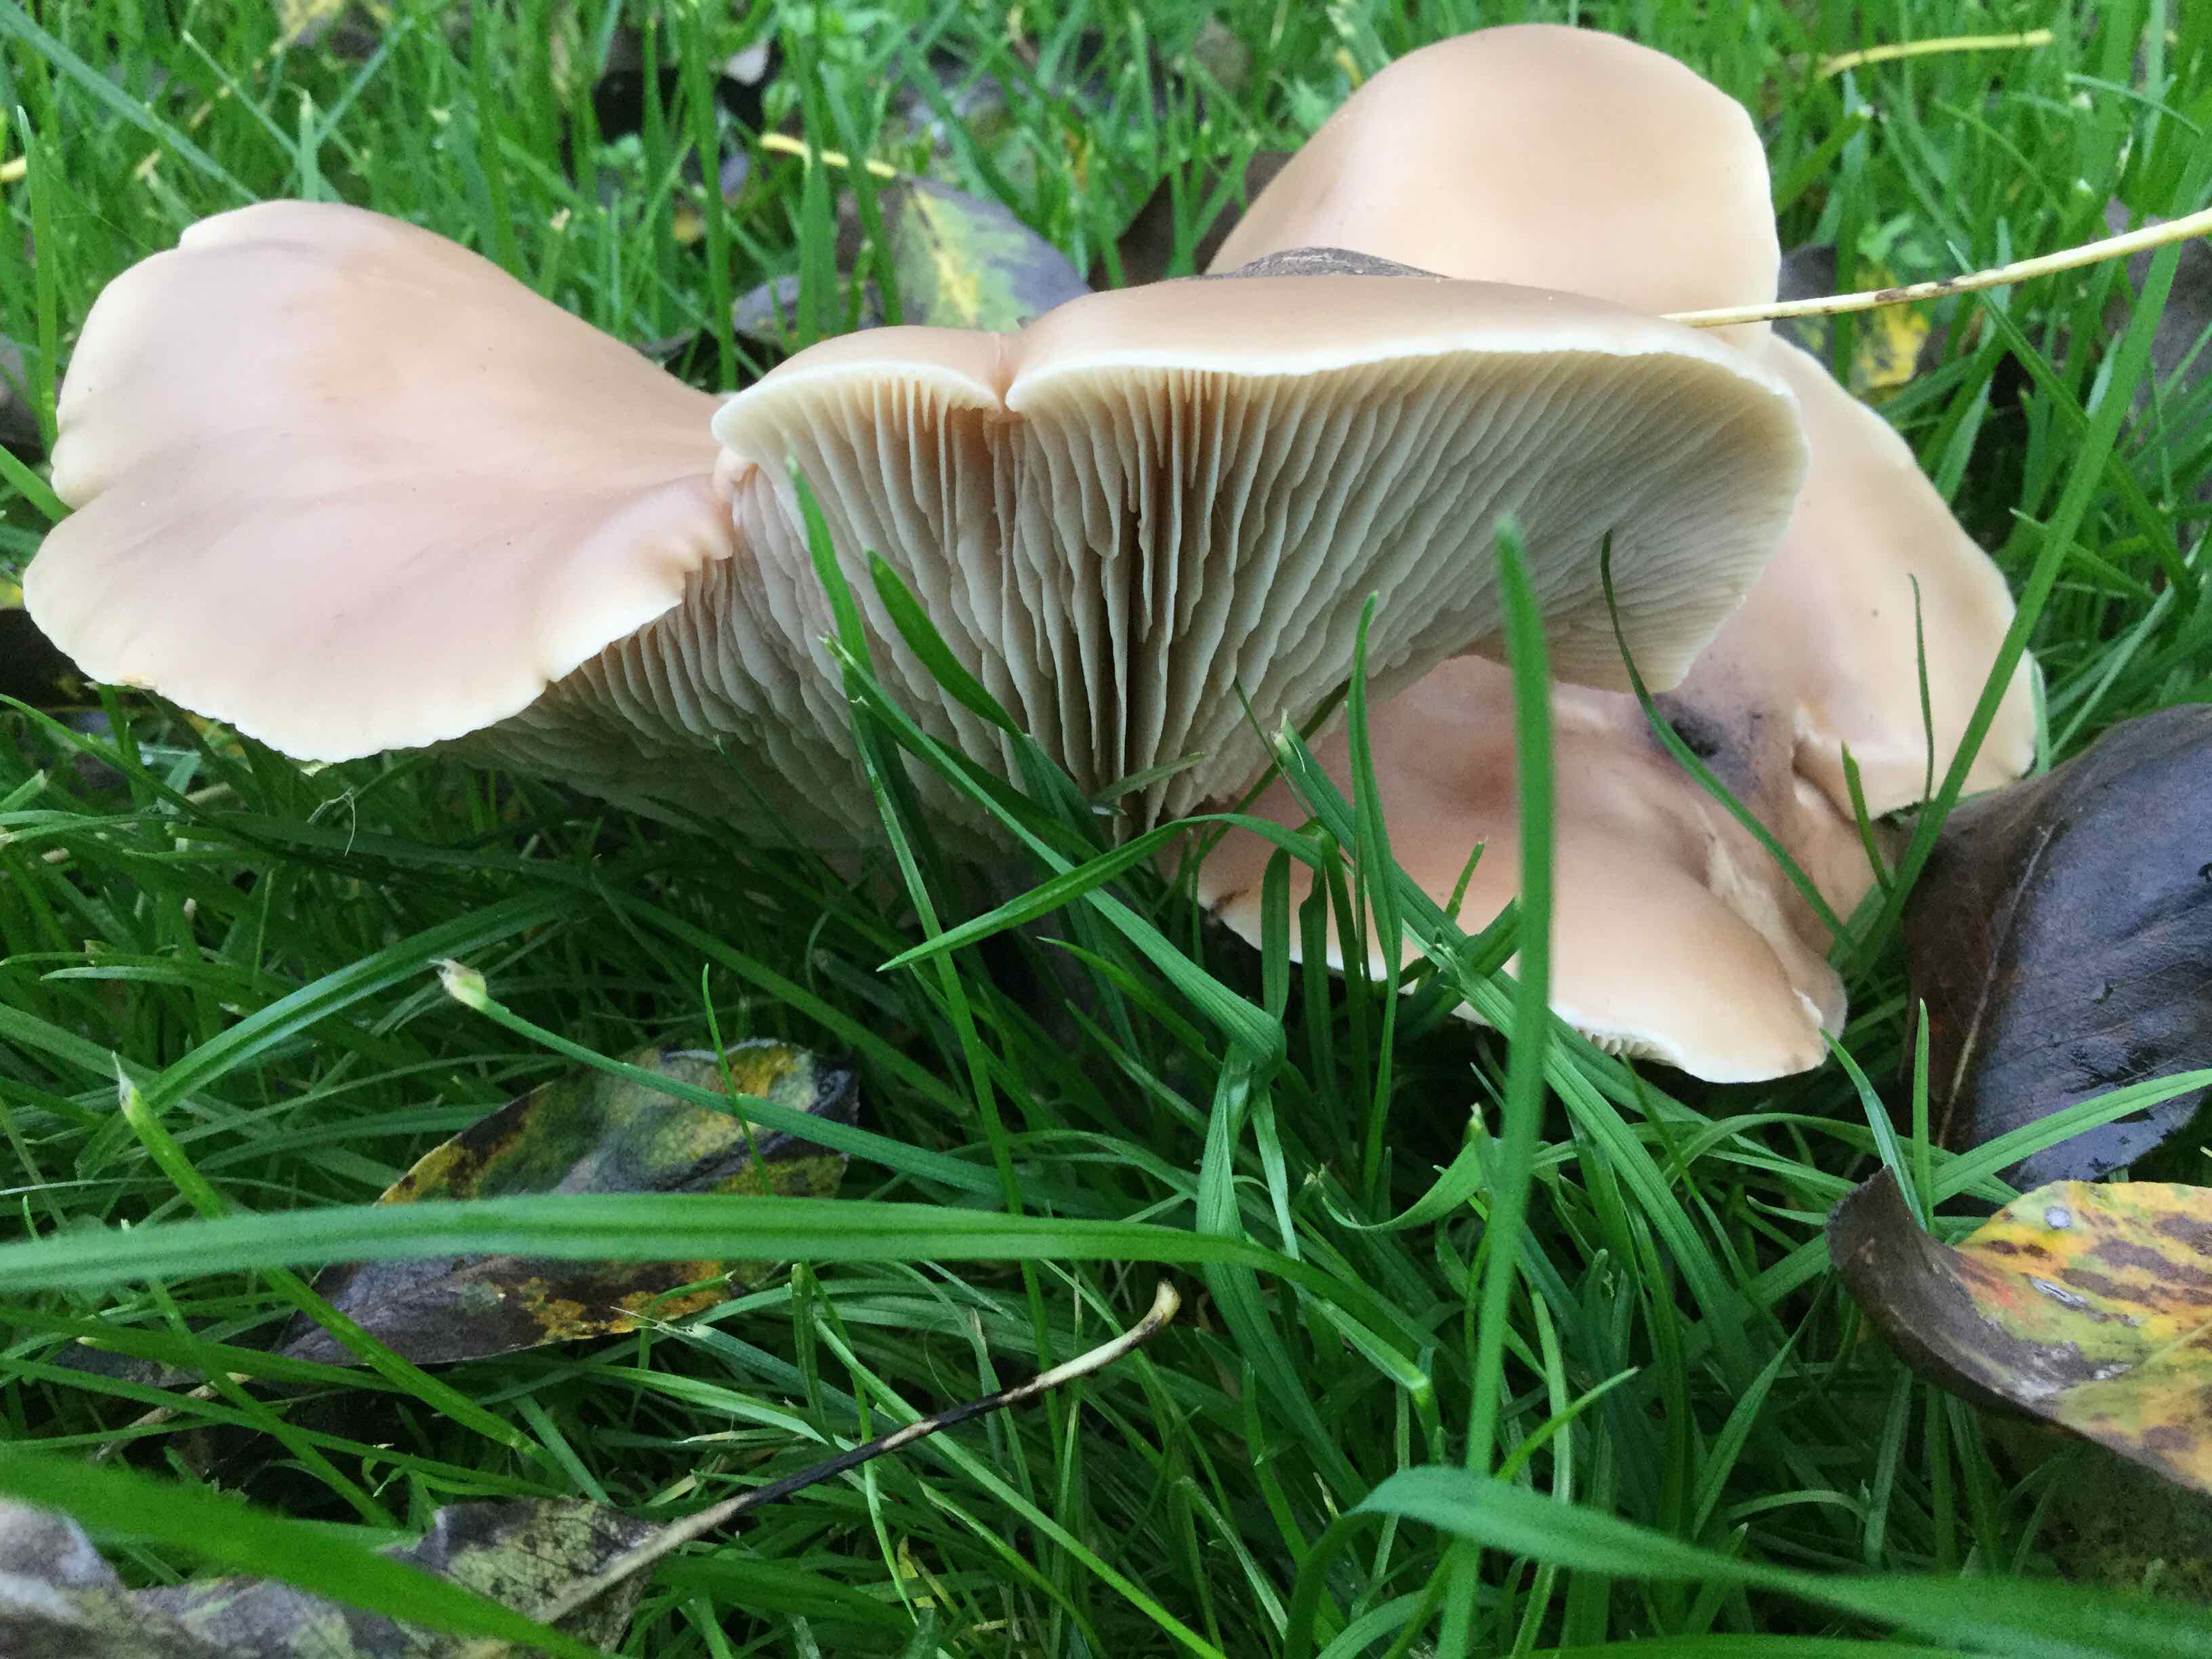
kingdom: Fungi
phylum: Basidiomycota
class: Agaricomycetes
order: Agaricales
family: Tricholomataceae
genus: Lepista
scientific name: Lepista personata
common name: bleg hekseringshat
